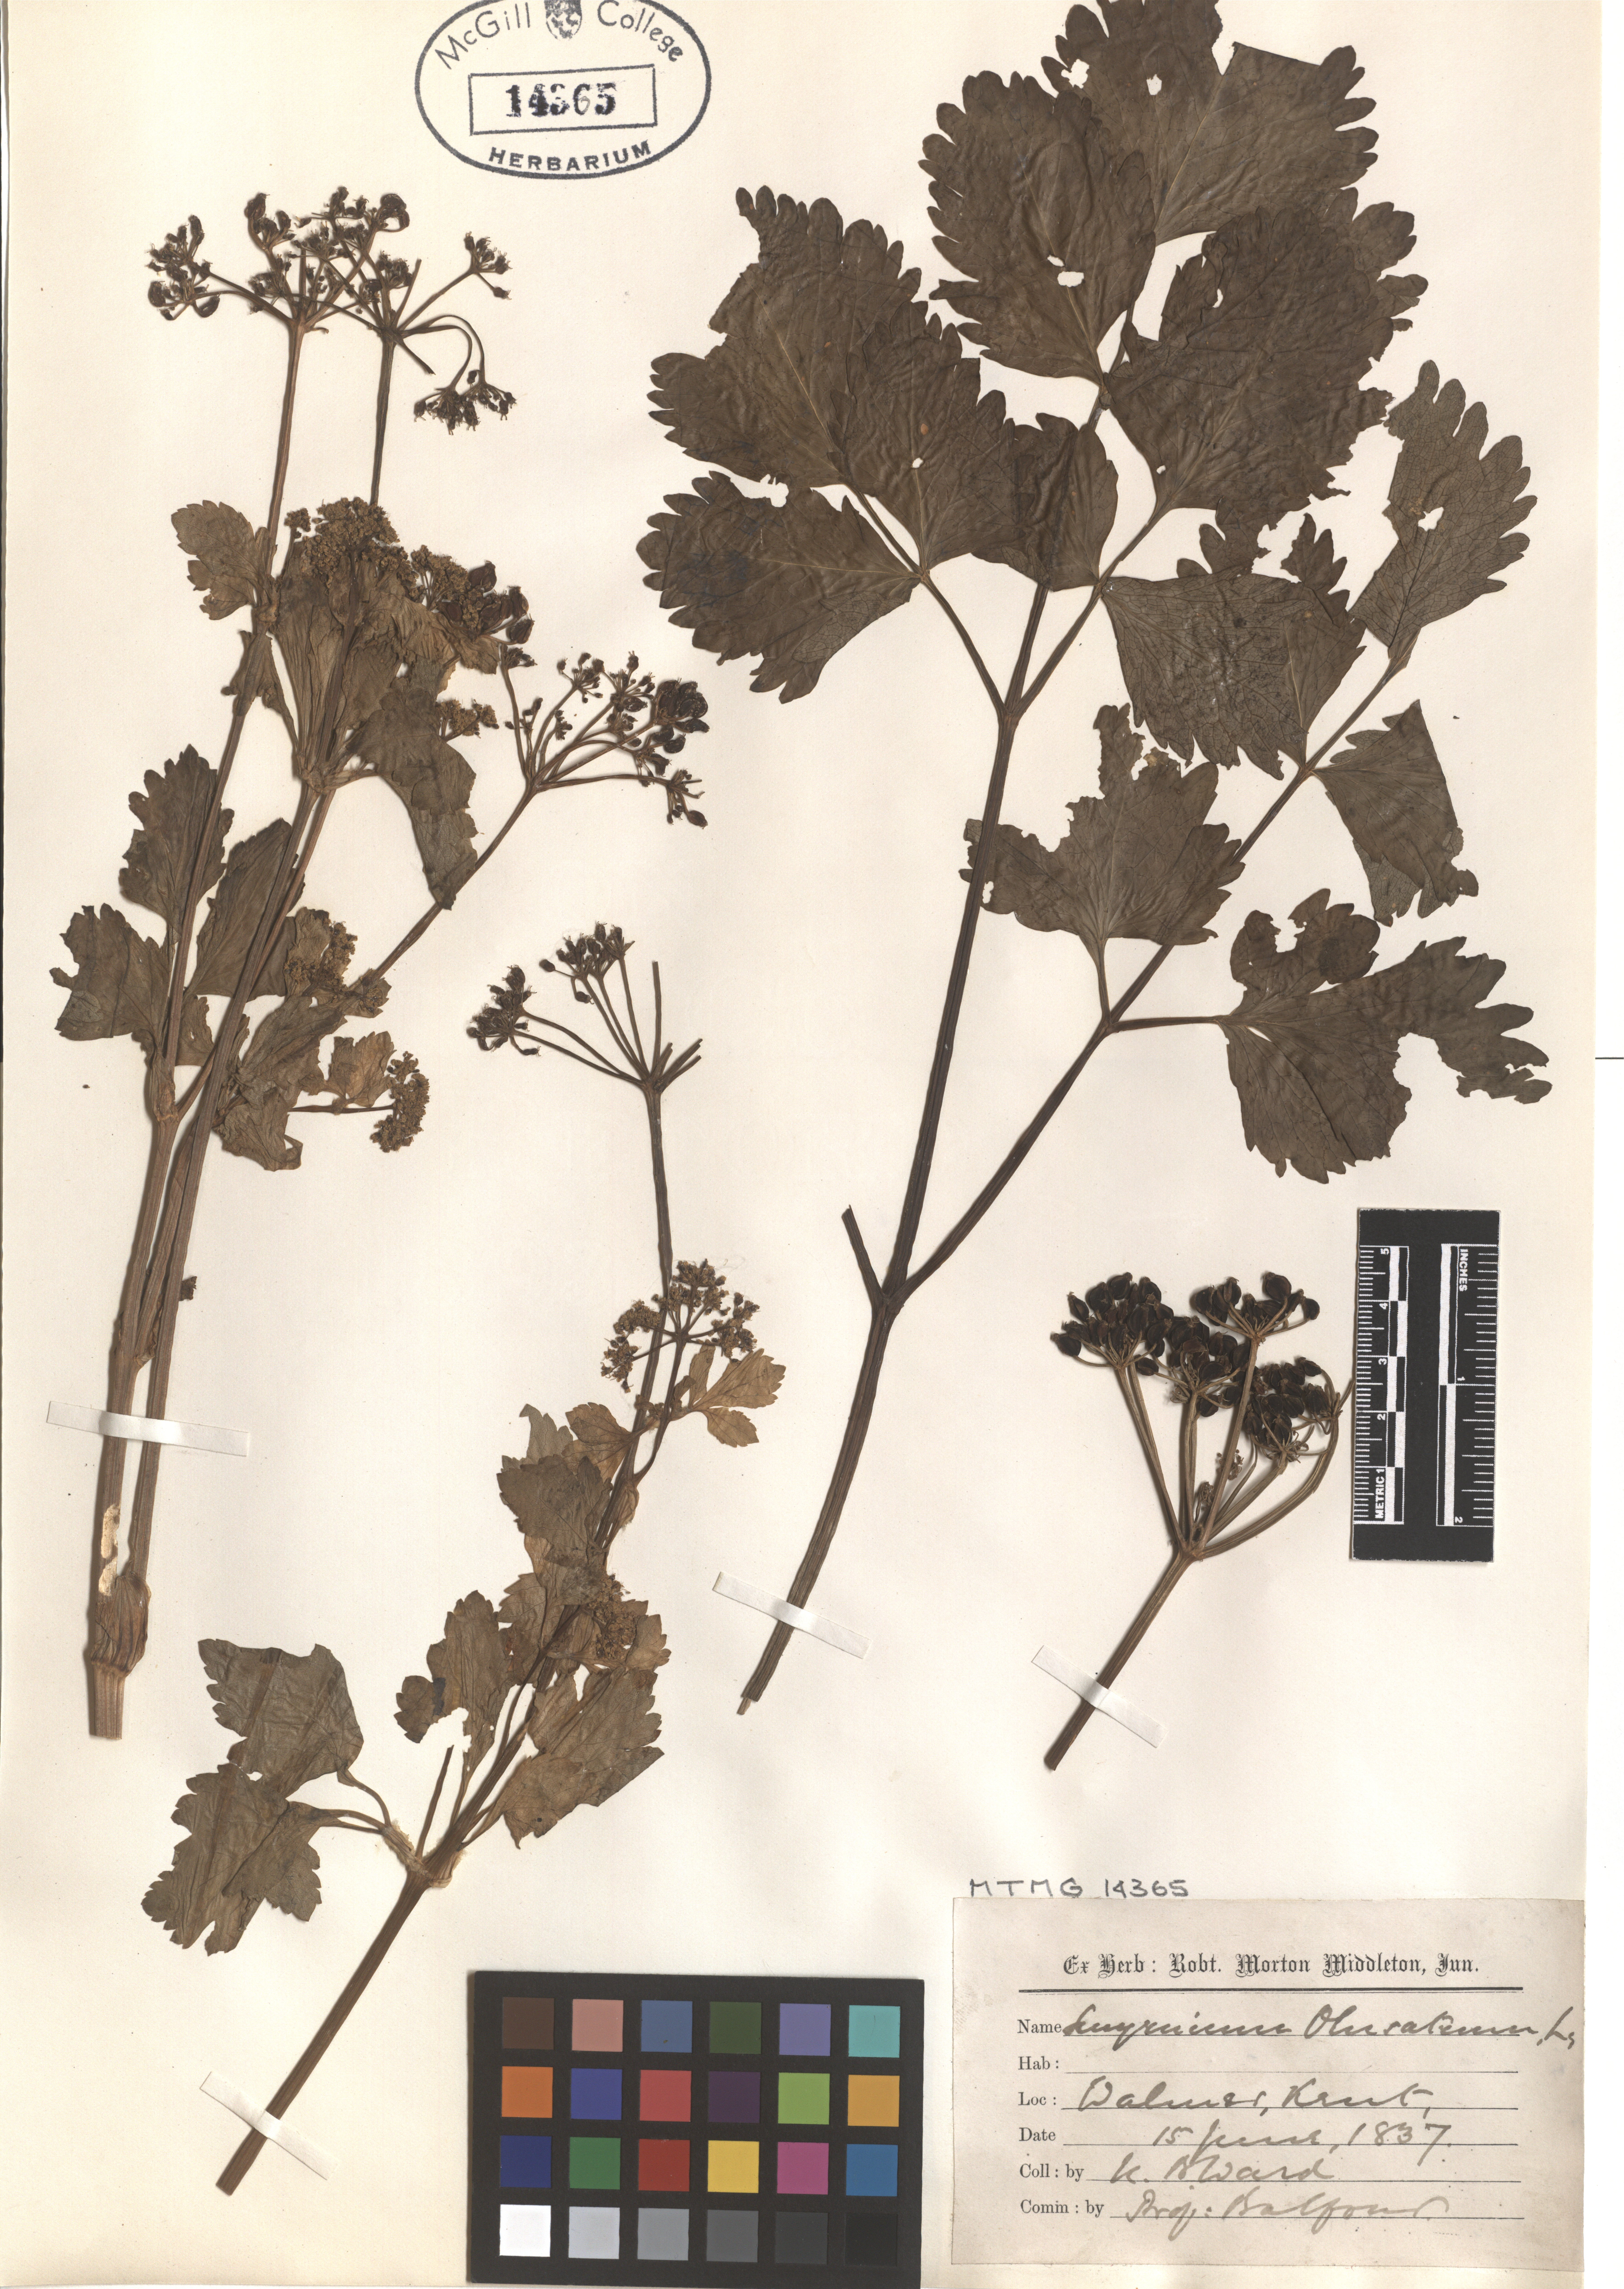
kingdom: Plantae
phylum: Tracheophyta
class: Magnoliopsida
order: Apiales
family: Apiaceae
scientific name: Apiaceae
